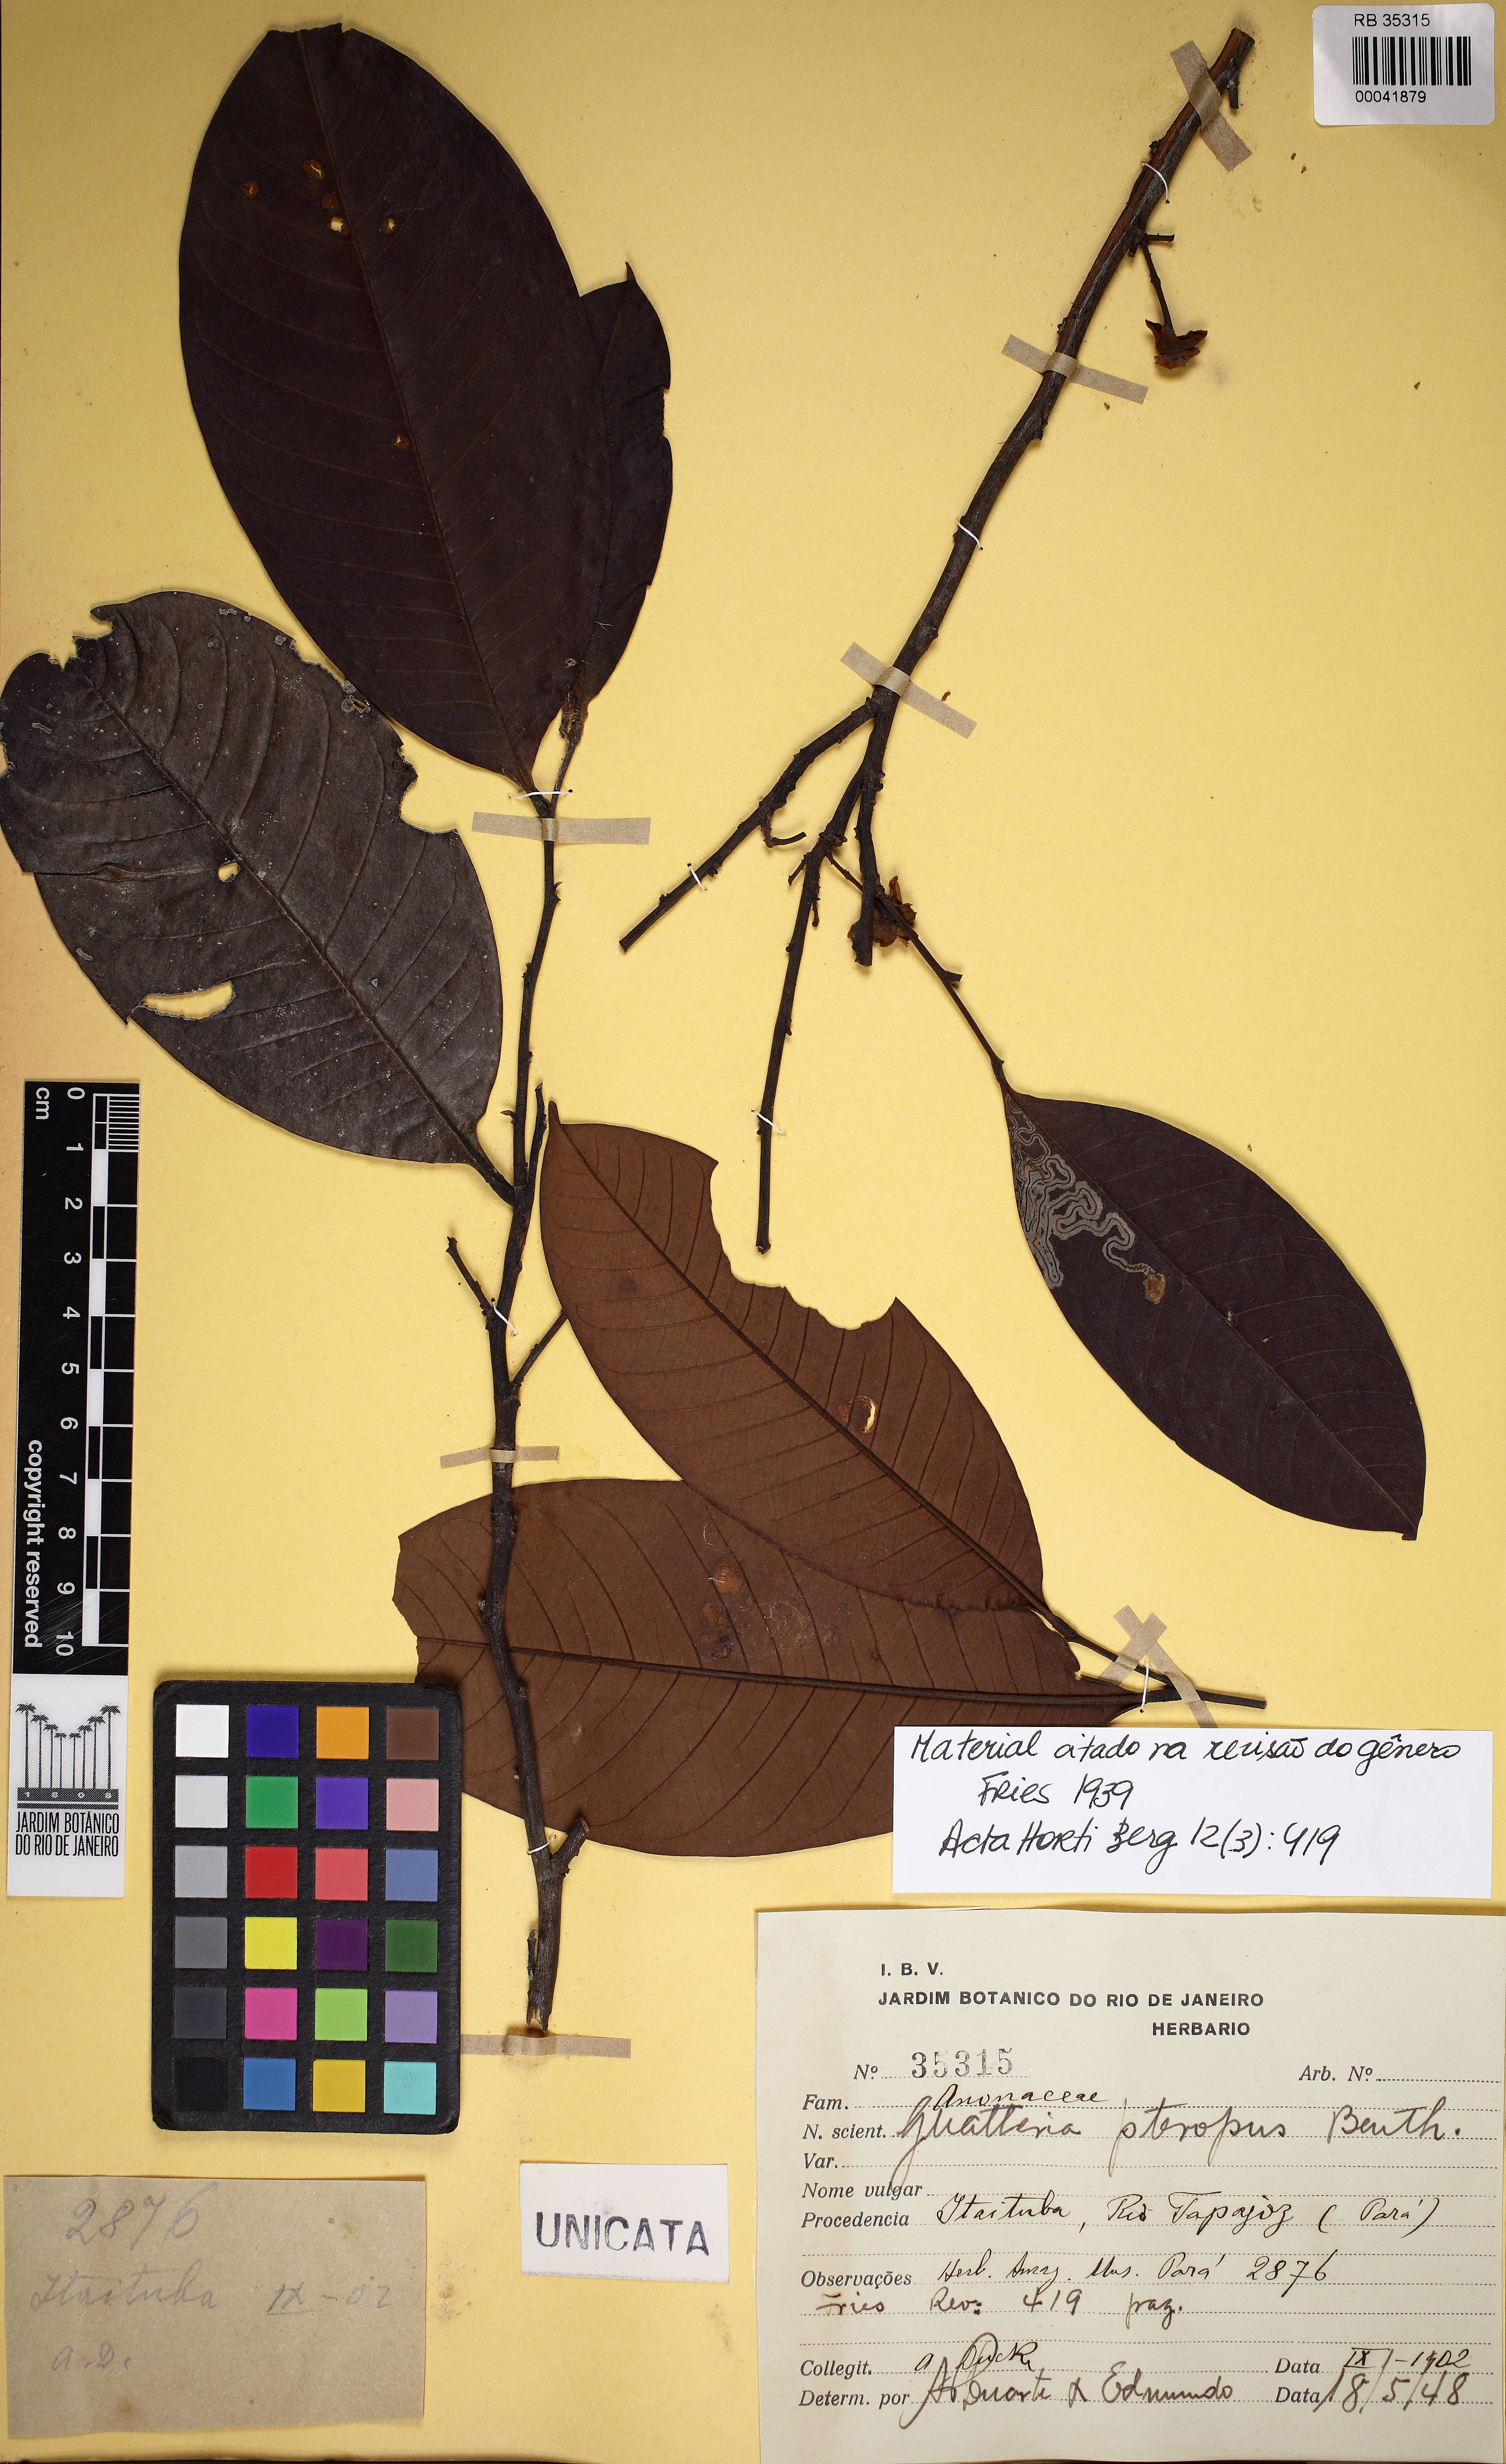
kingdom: Plantae
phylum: Tracheophyta
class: Magnoliopsida
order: Magnoliales
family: Annonaceae
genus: Guatteria
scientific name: Guatteria punctata
